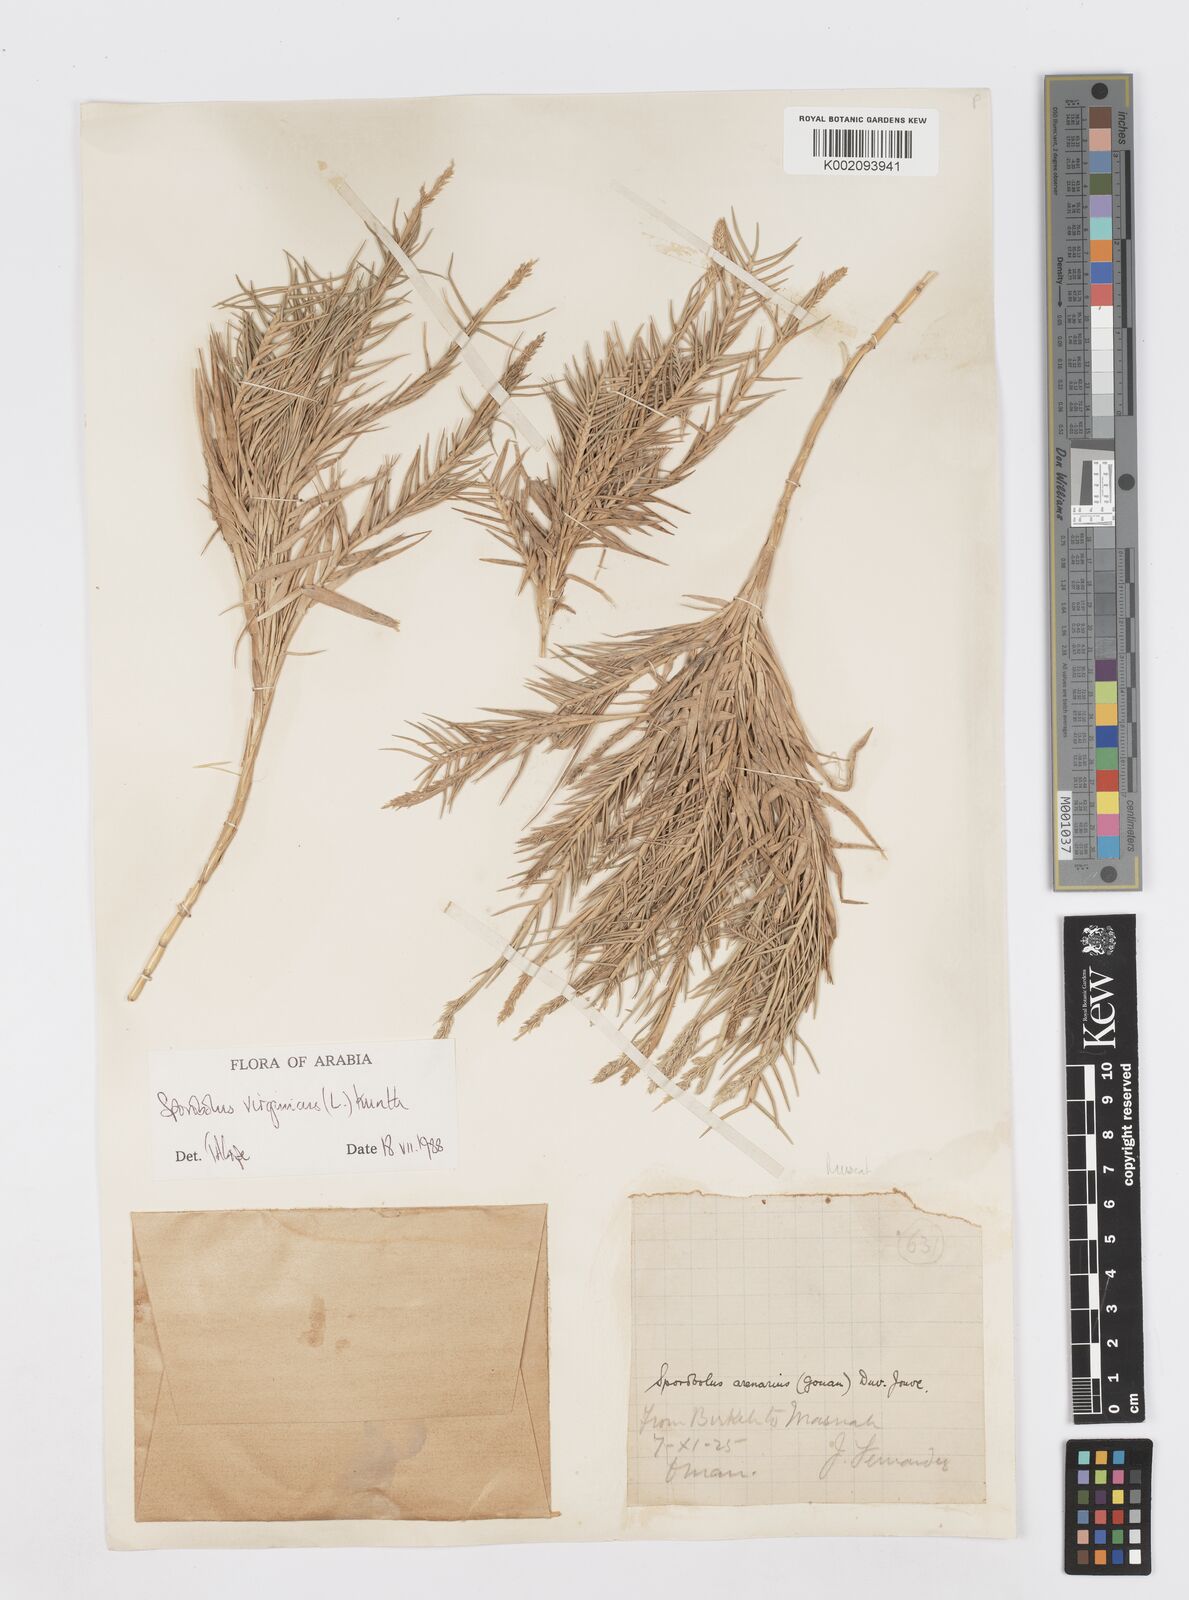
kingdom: Plantae
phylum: Tracheophyta
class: Liliopsida
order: Poales
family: Poaceae
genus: Sporobolus
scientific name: Sporobolus virginicus
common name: Beach dropseed
